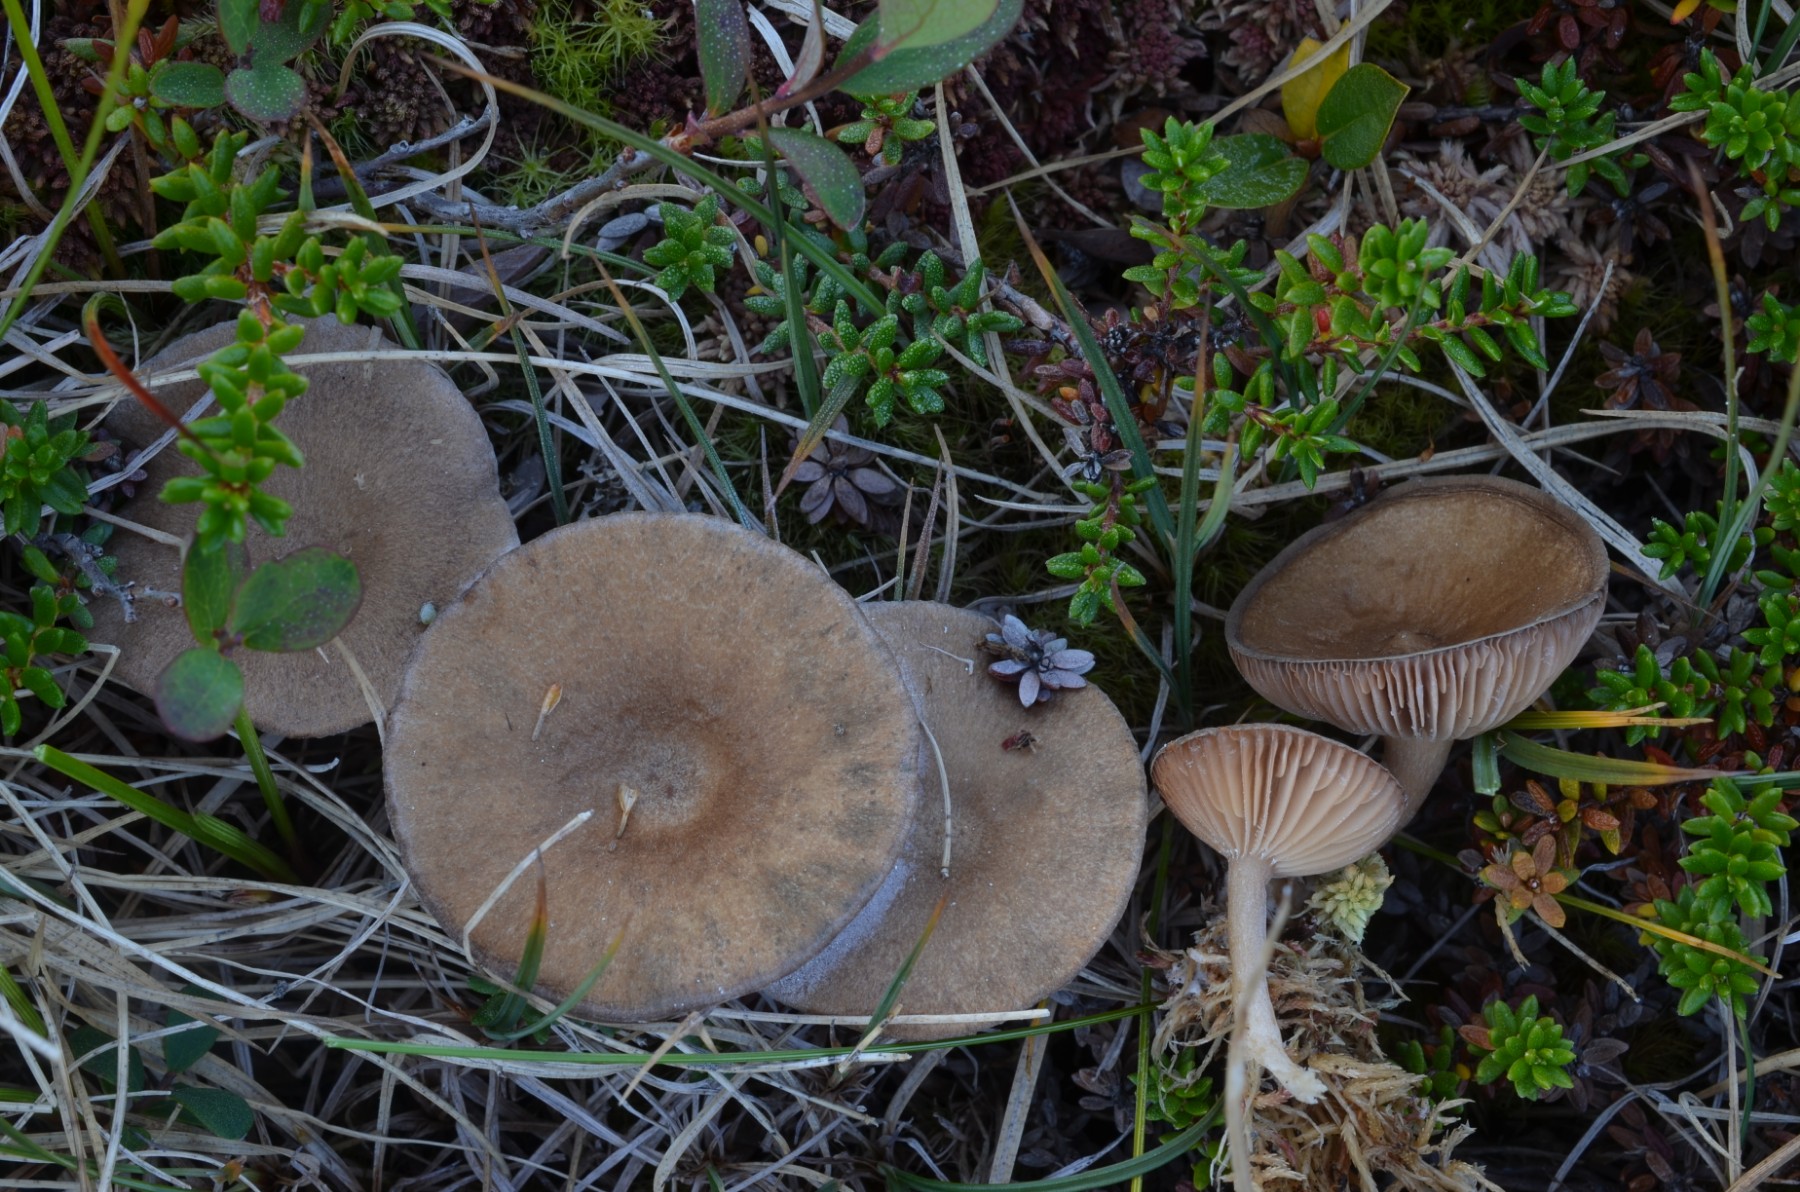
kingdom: Fungi
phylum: Basidiomycota
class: Agaricomycetes
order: Russulales
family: Russulaceae
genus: Lactarius
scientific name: Lactarius glyciosmus
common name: kokos-mælkehat
